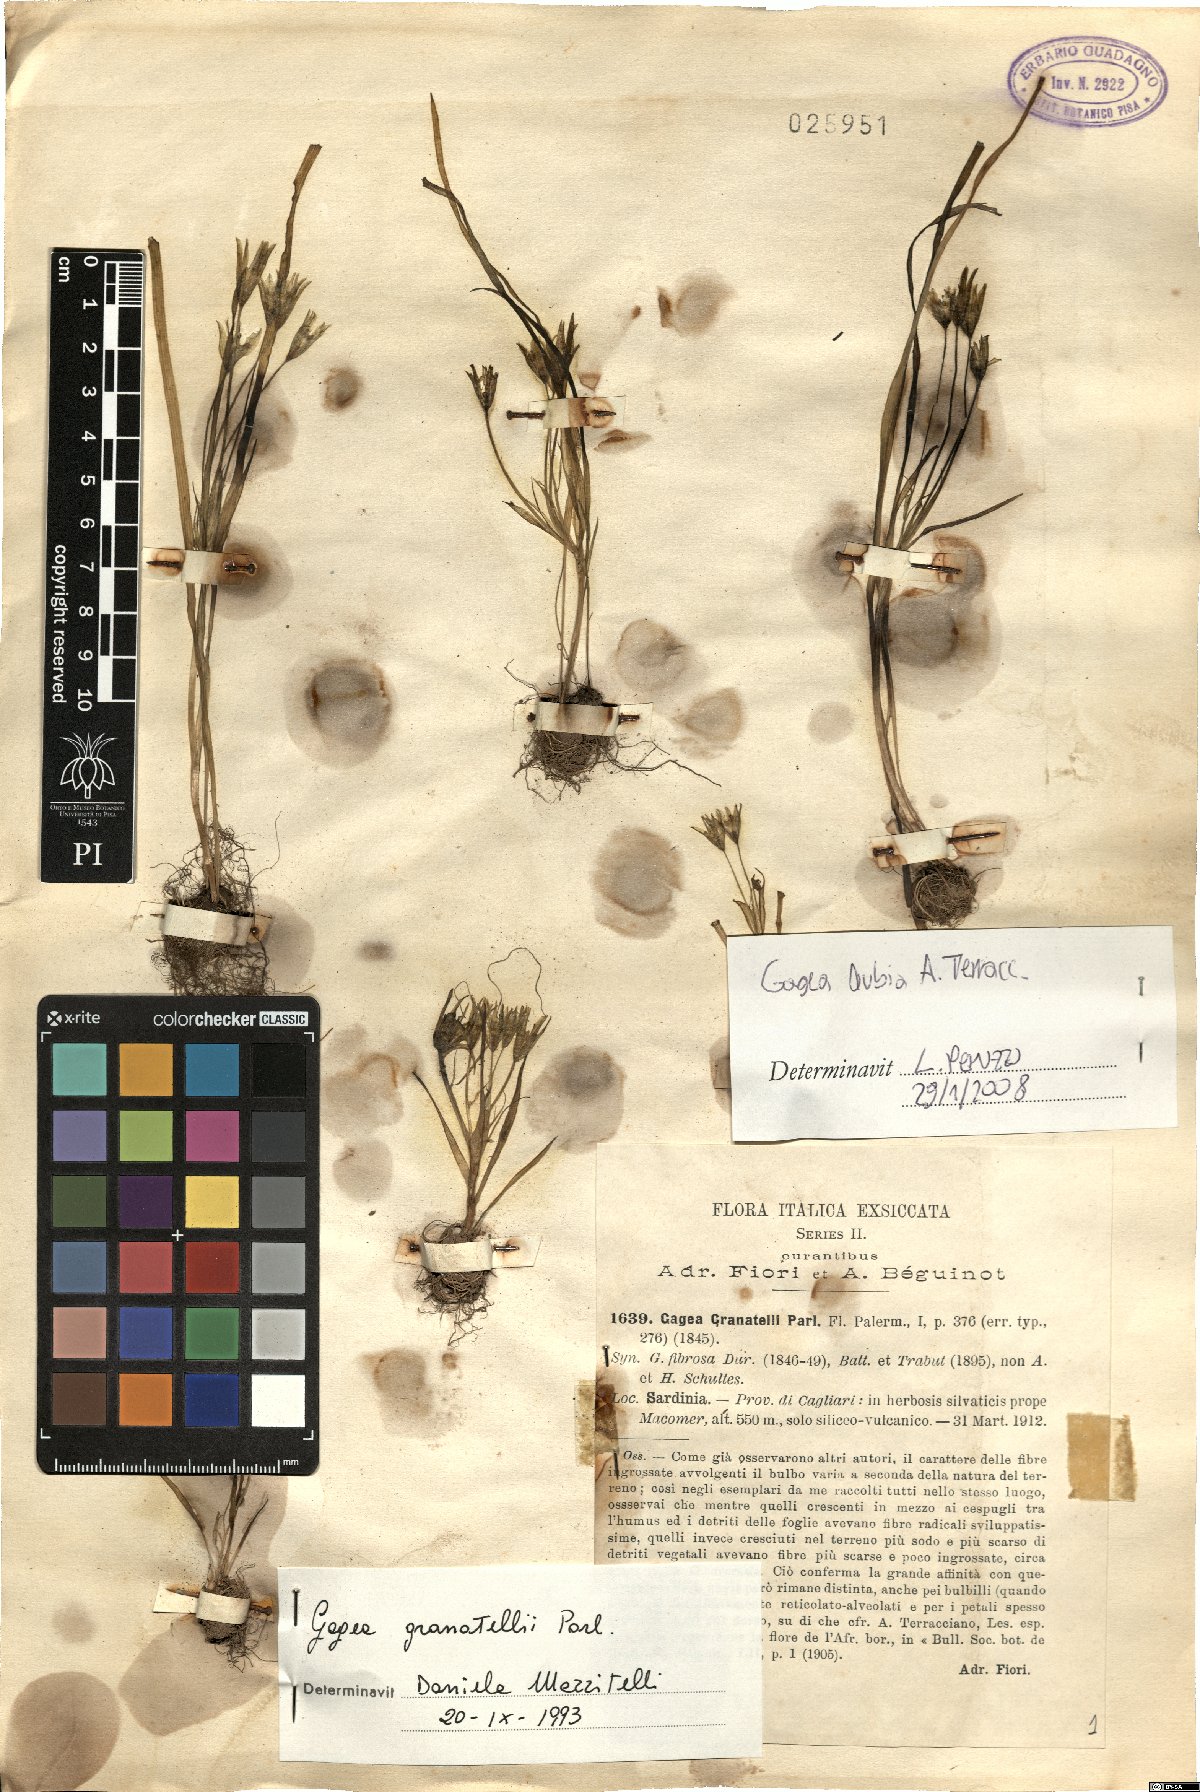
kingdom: Plantae
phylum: Tracheophyta
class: Liliopsida
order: Liliales
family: Liliaceae
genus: Gagea
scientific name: Gagea dubia
